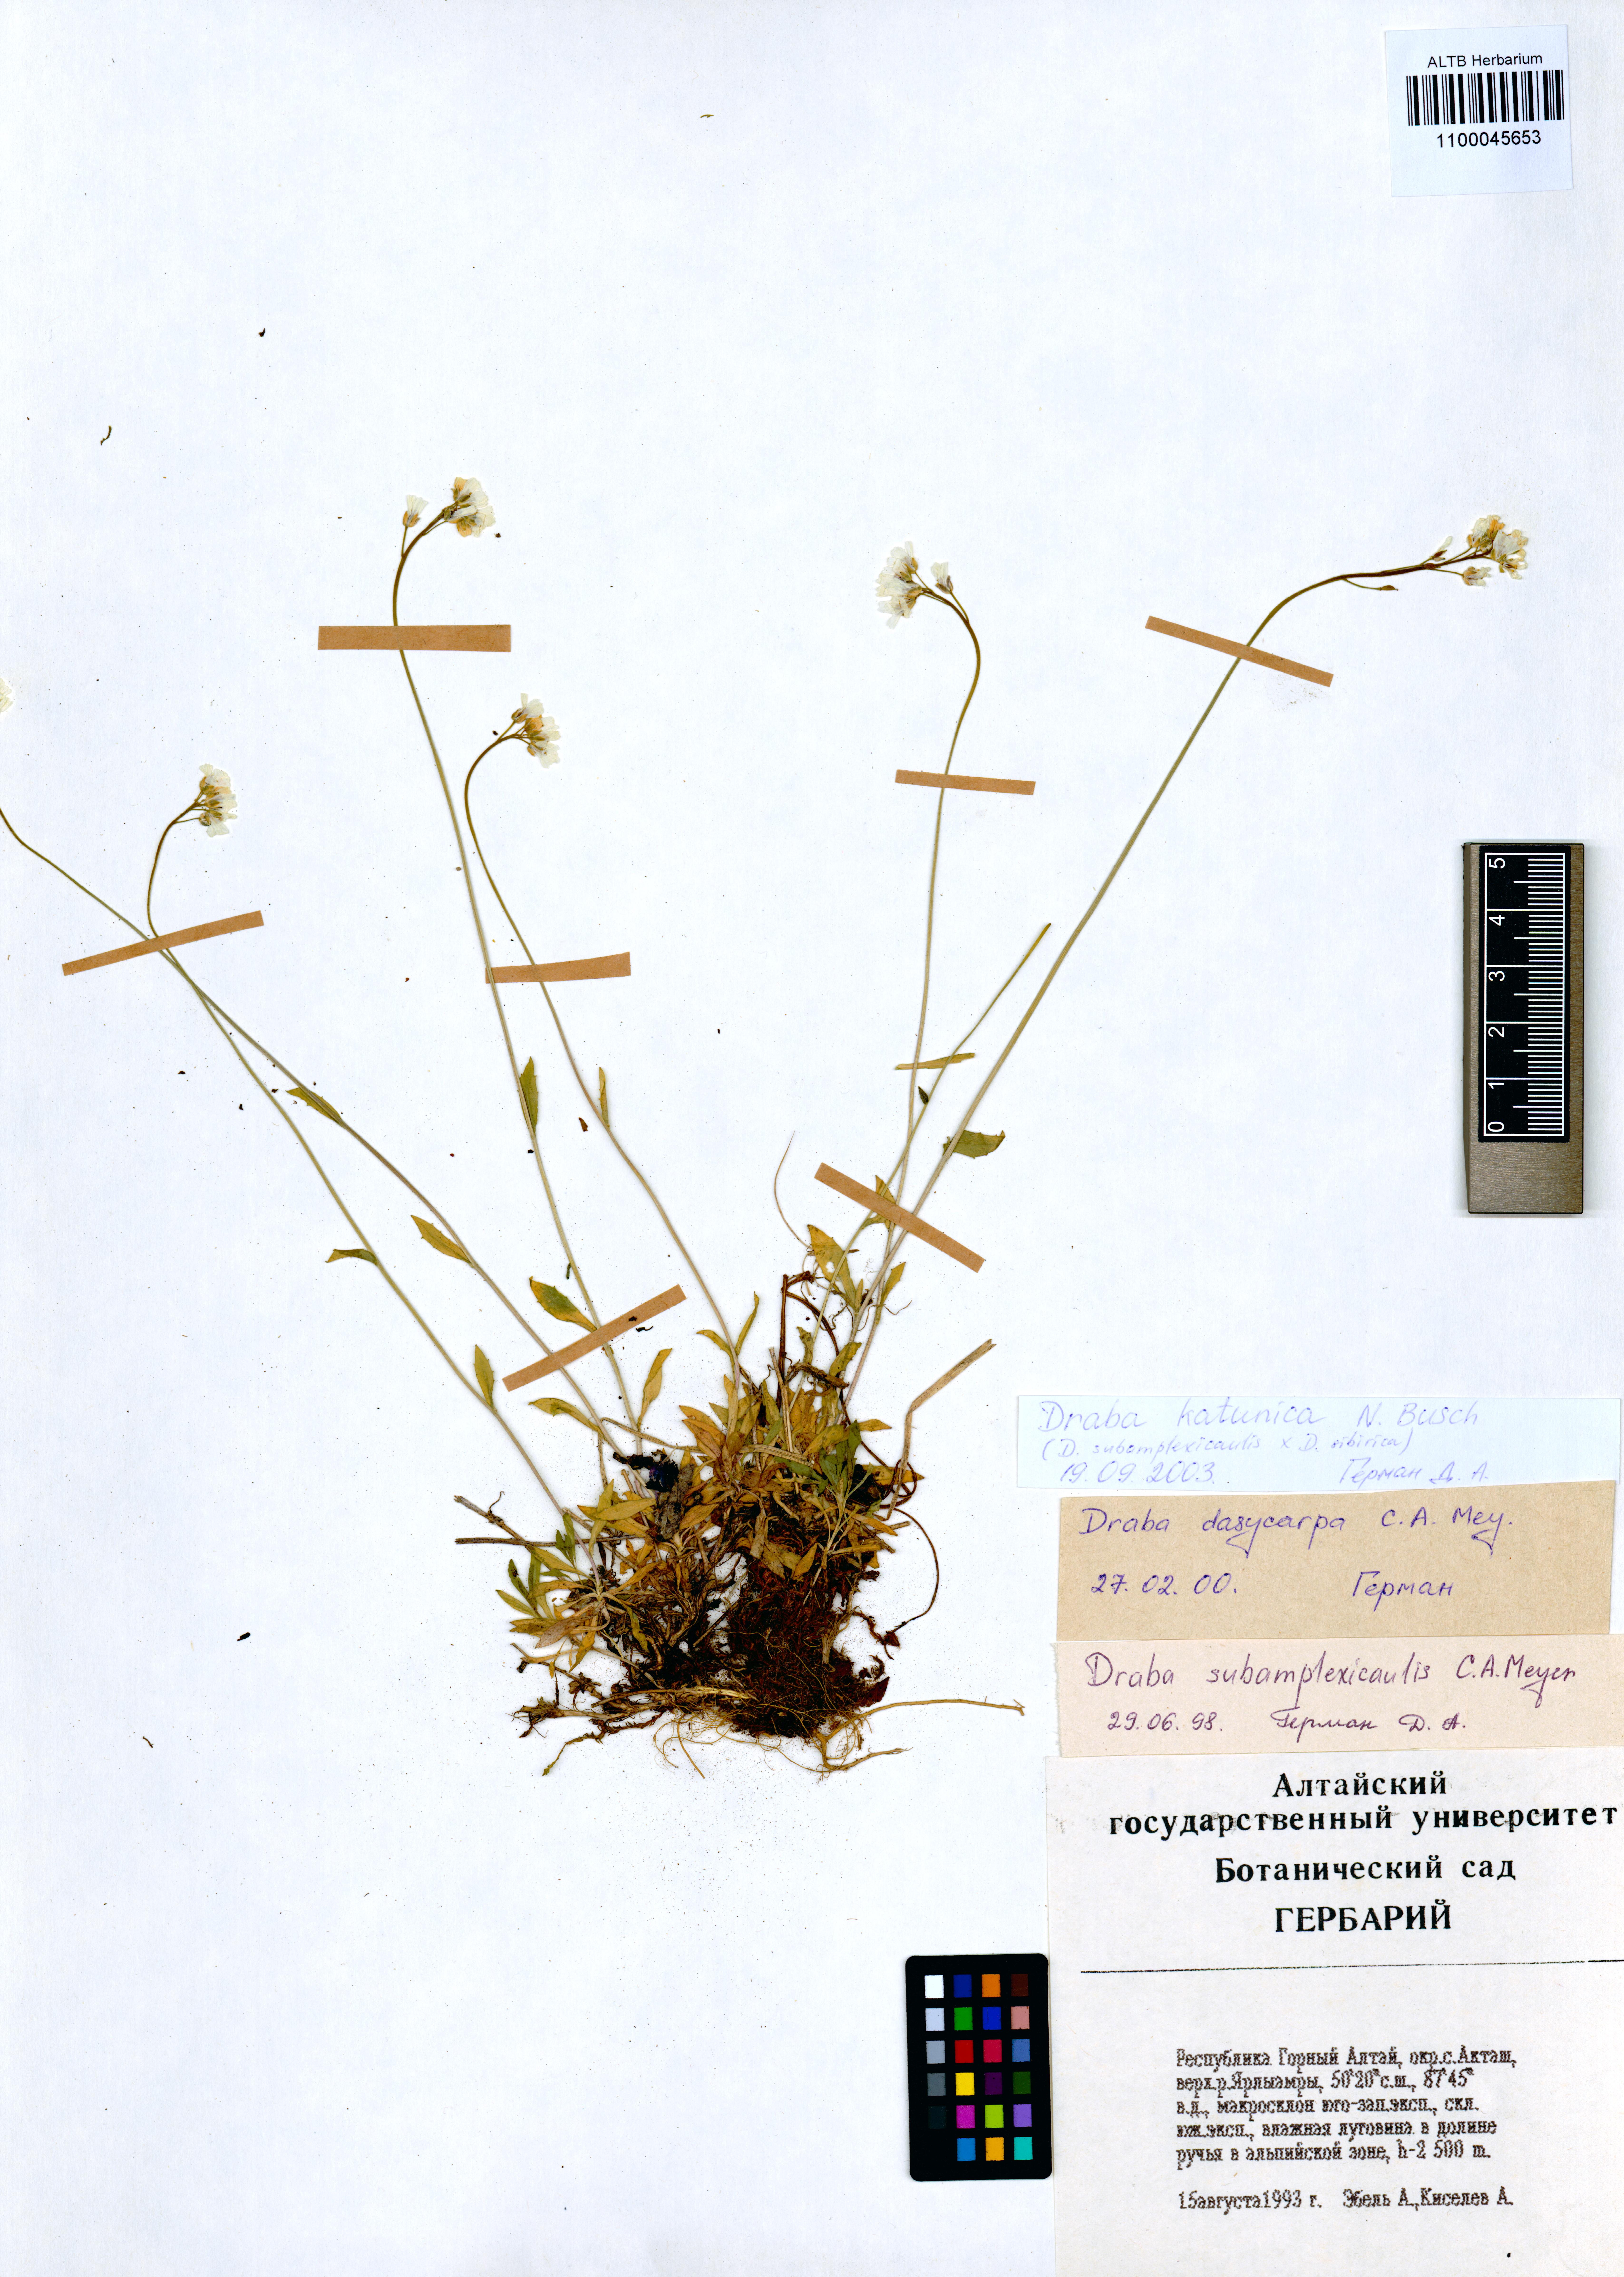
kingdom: Plantae
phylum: Tracheophyta
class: Magnoliopsida
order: Brassicales
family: Brassicaceae
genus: Draba
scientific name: Draba glabella
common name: Glaucous draba
